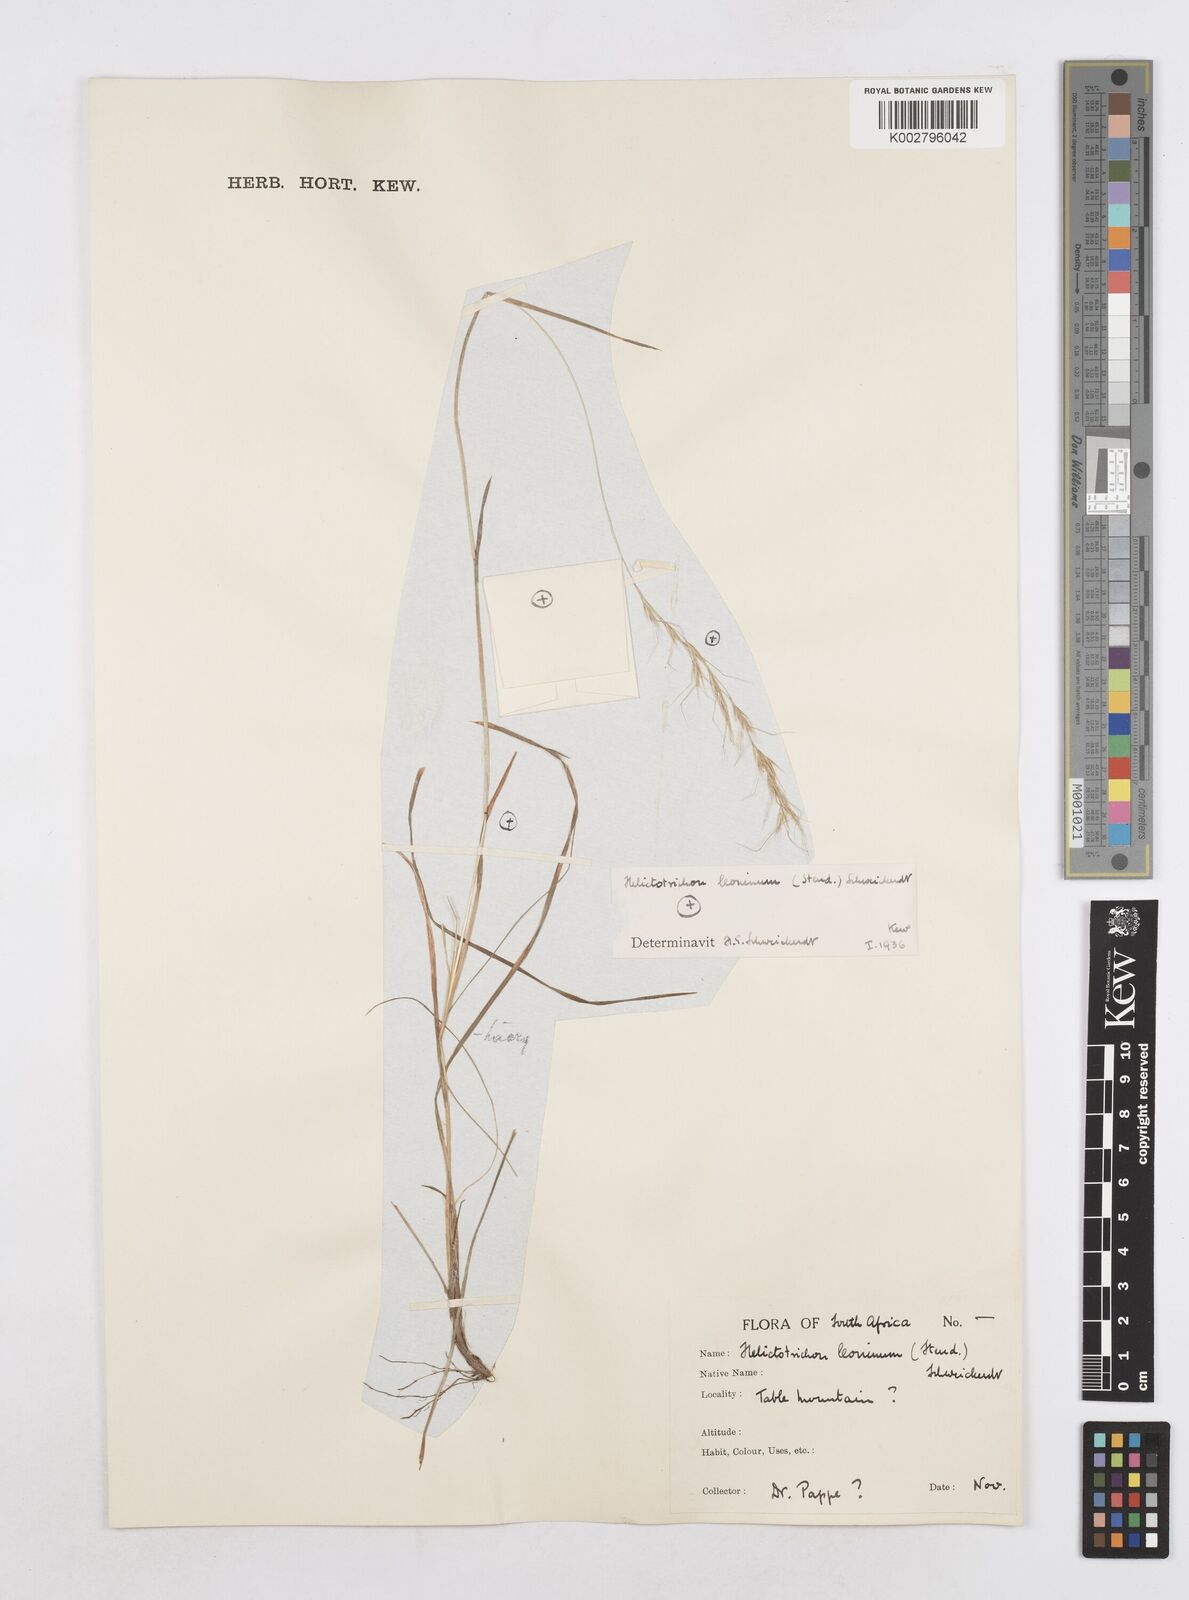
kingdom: Plantae
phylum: Tracheophyta
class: Liliopsida
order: Poales
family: Poaceae
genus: Trisetopsis
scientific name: Trisetopsis leonina
